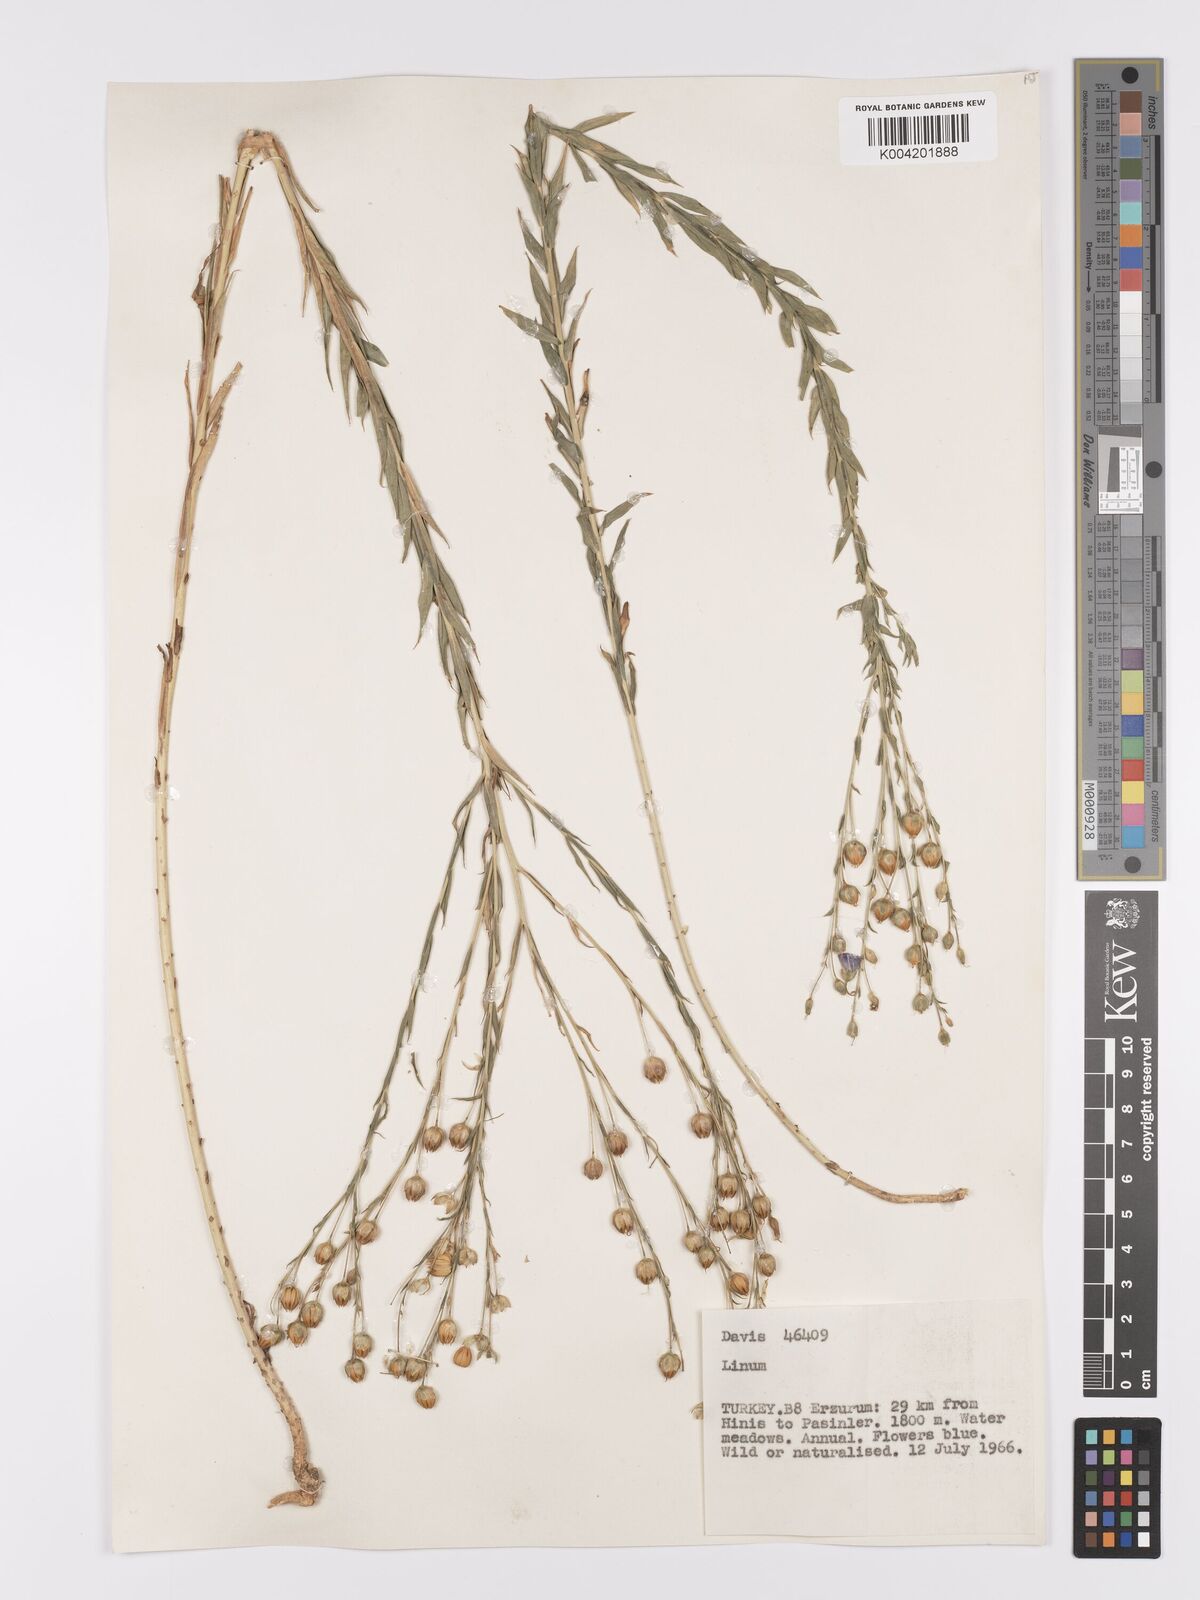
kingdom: Plantae
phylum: Tracheophyta
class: Magnoliopsida
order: Malpighiales
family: Linaceae
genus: Linum
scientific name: Linum
